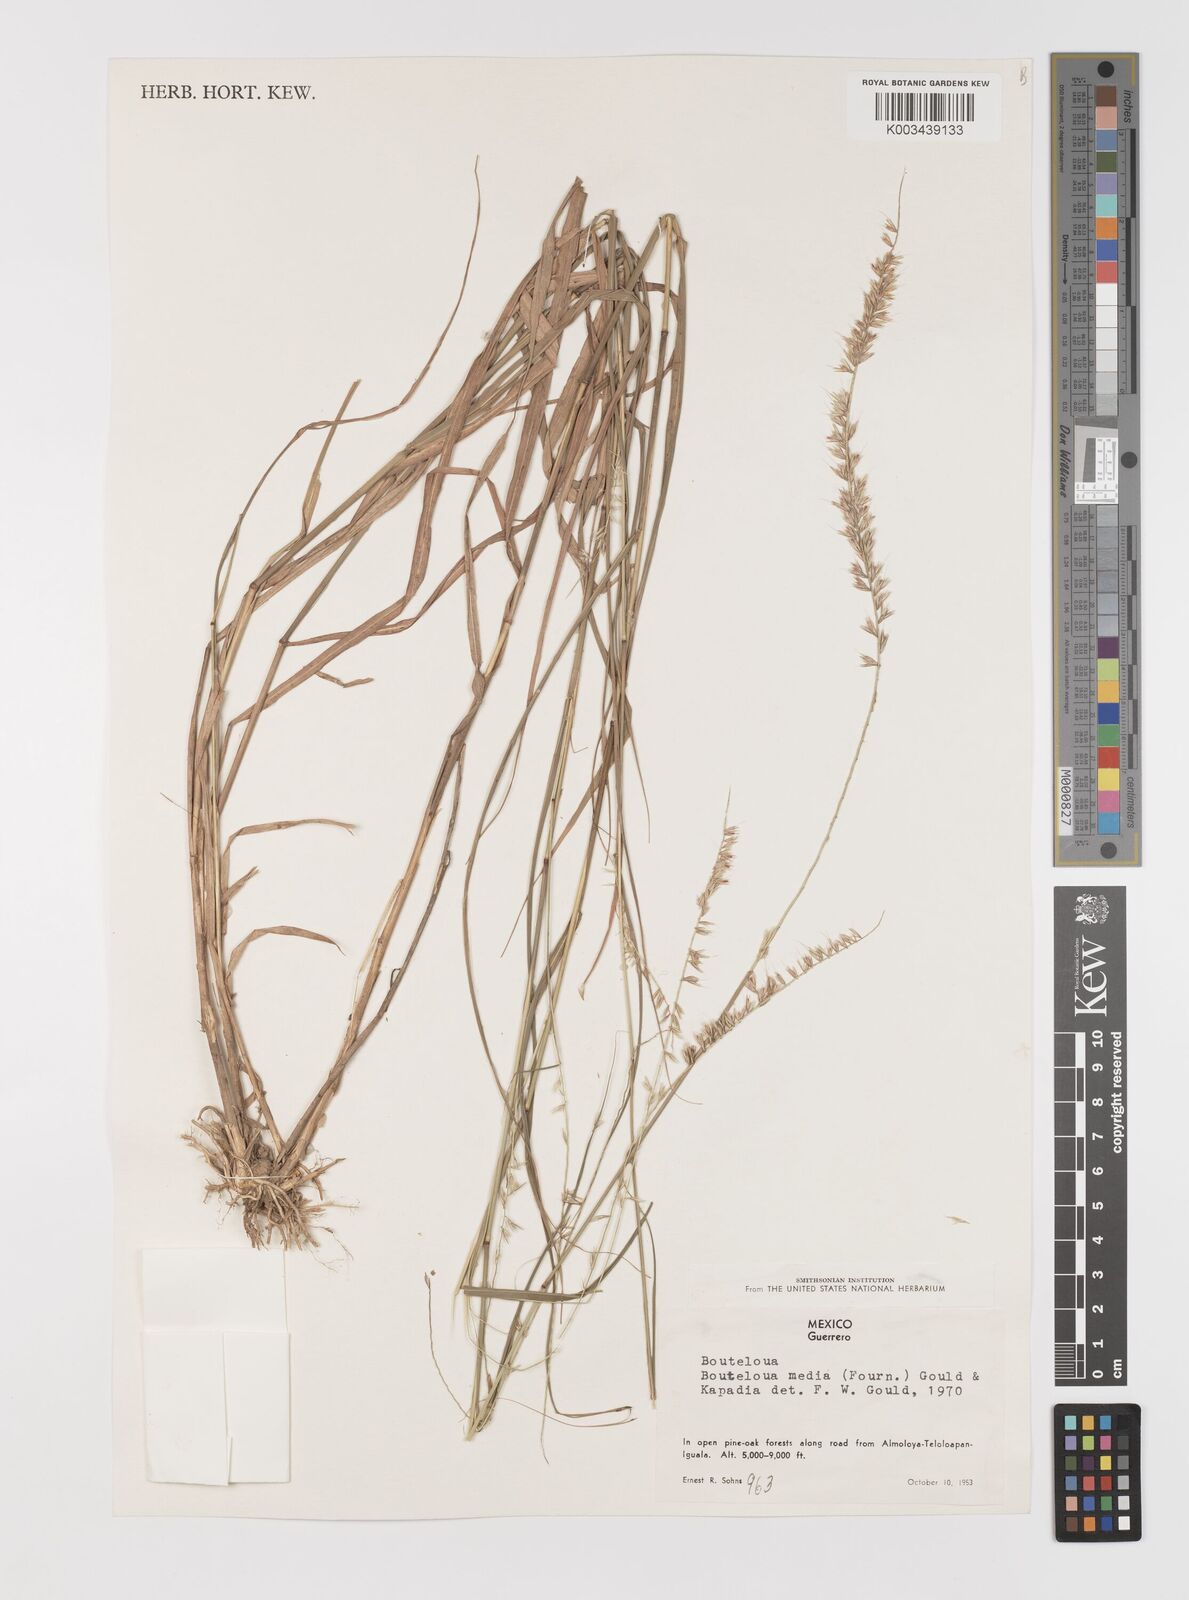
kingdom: Plantae
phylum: Tracheophyta
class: Liliopsida
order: Poales
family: Poaceae
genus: Bouteloua
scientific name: Bouteloua media
